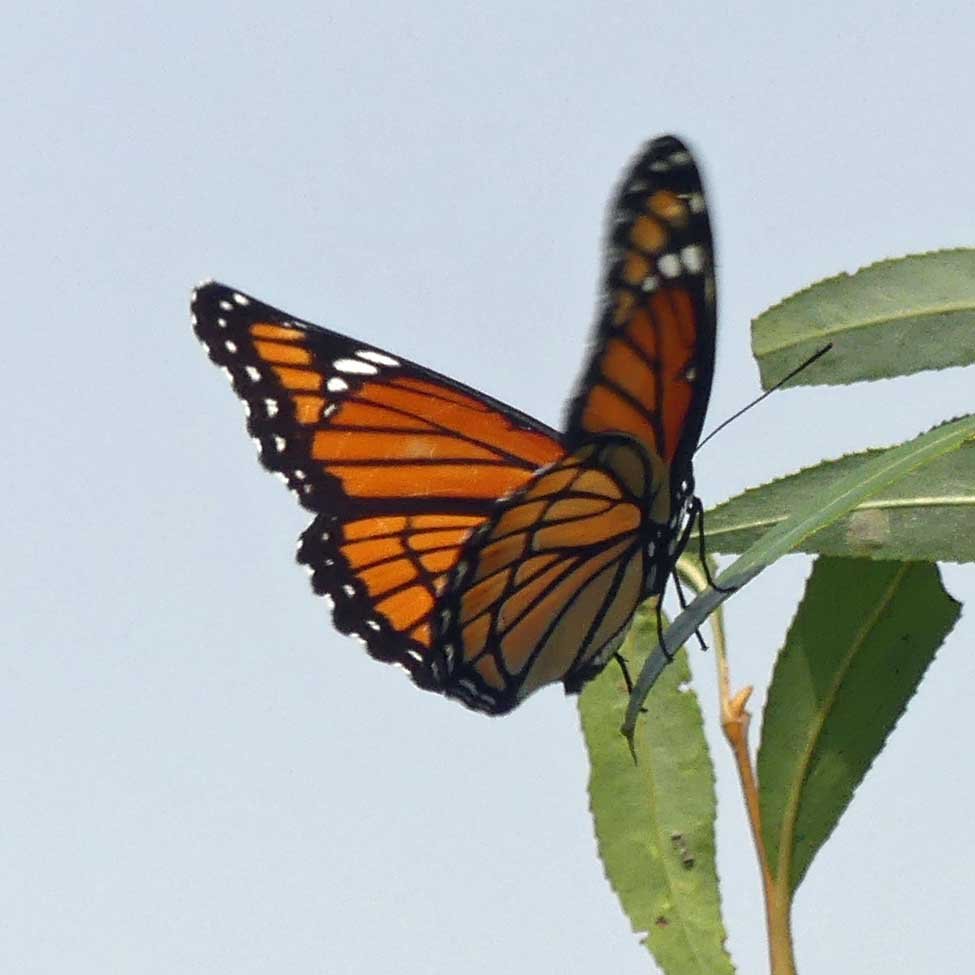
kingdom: Animalia
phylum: Arthropoda
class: Insecta
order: Lepidoptera
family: Nymphalidae
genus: Limenitis
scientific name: Limenitis archippus
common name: Viceroy
